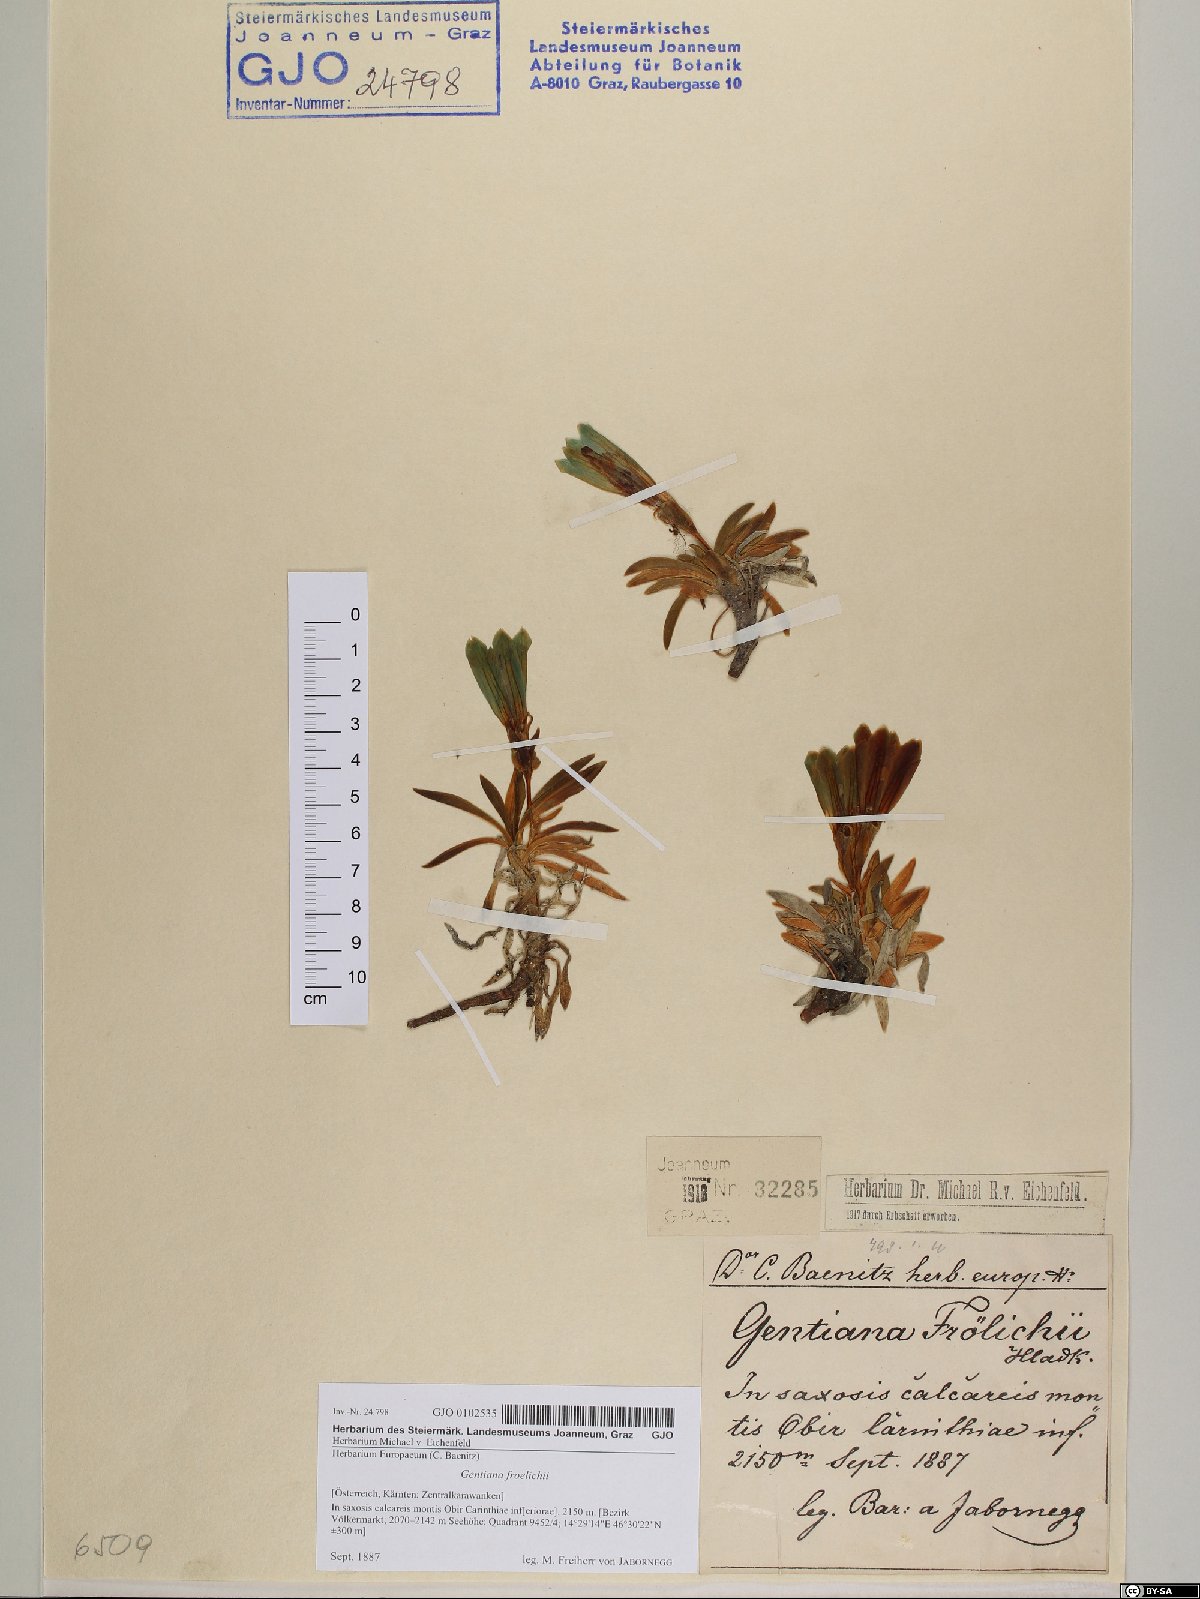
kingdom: Plantae
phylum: Tracheophyta
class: Magnoliopsida
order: Gentianales
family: Gentianaceae
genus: Gentiana
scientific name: Gentiana froelichii
